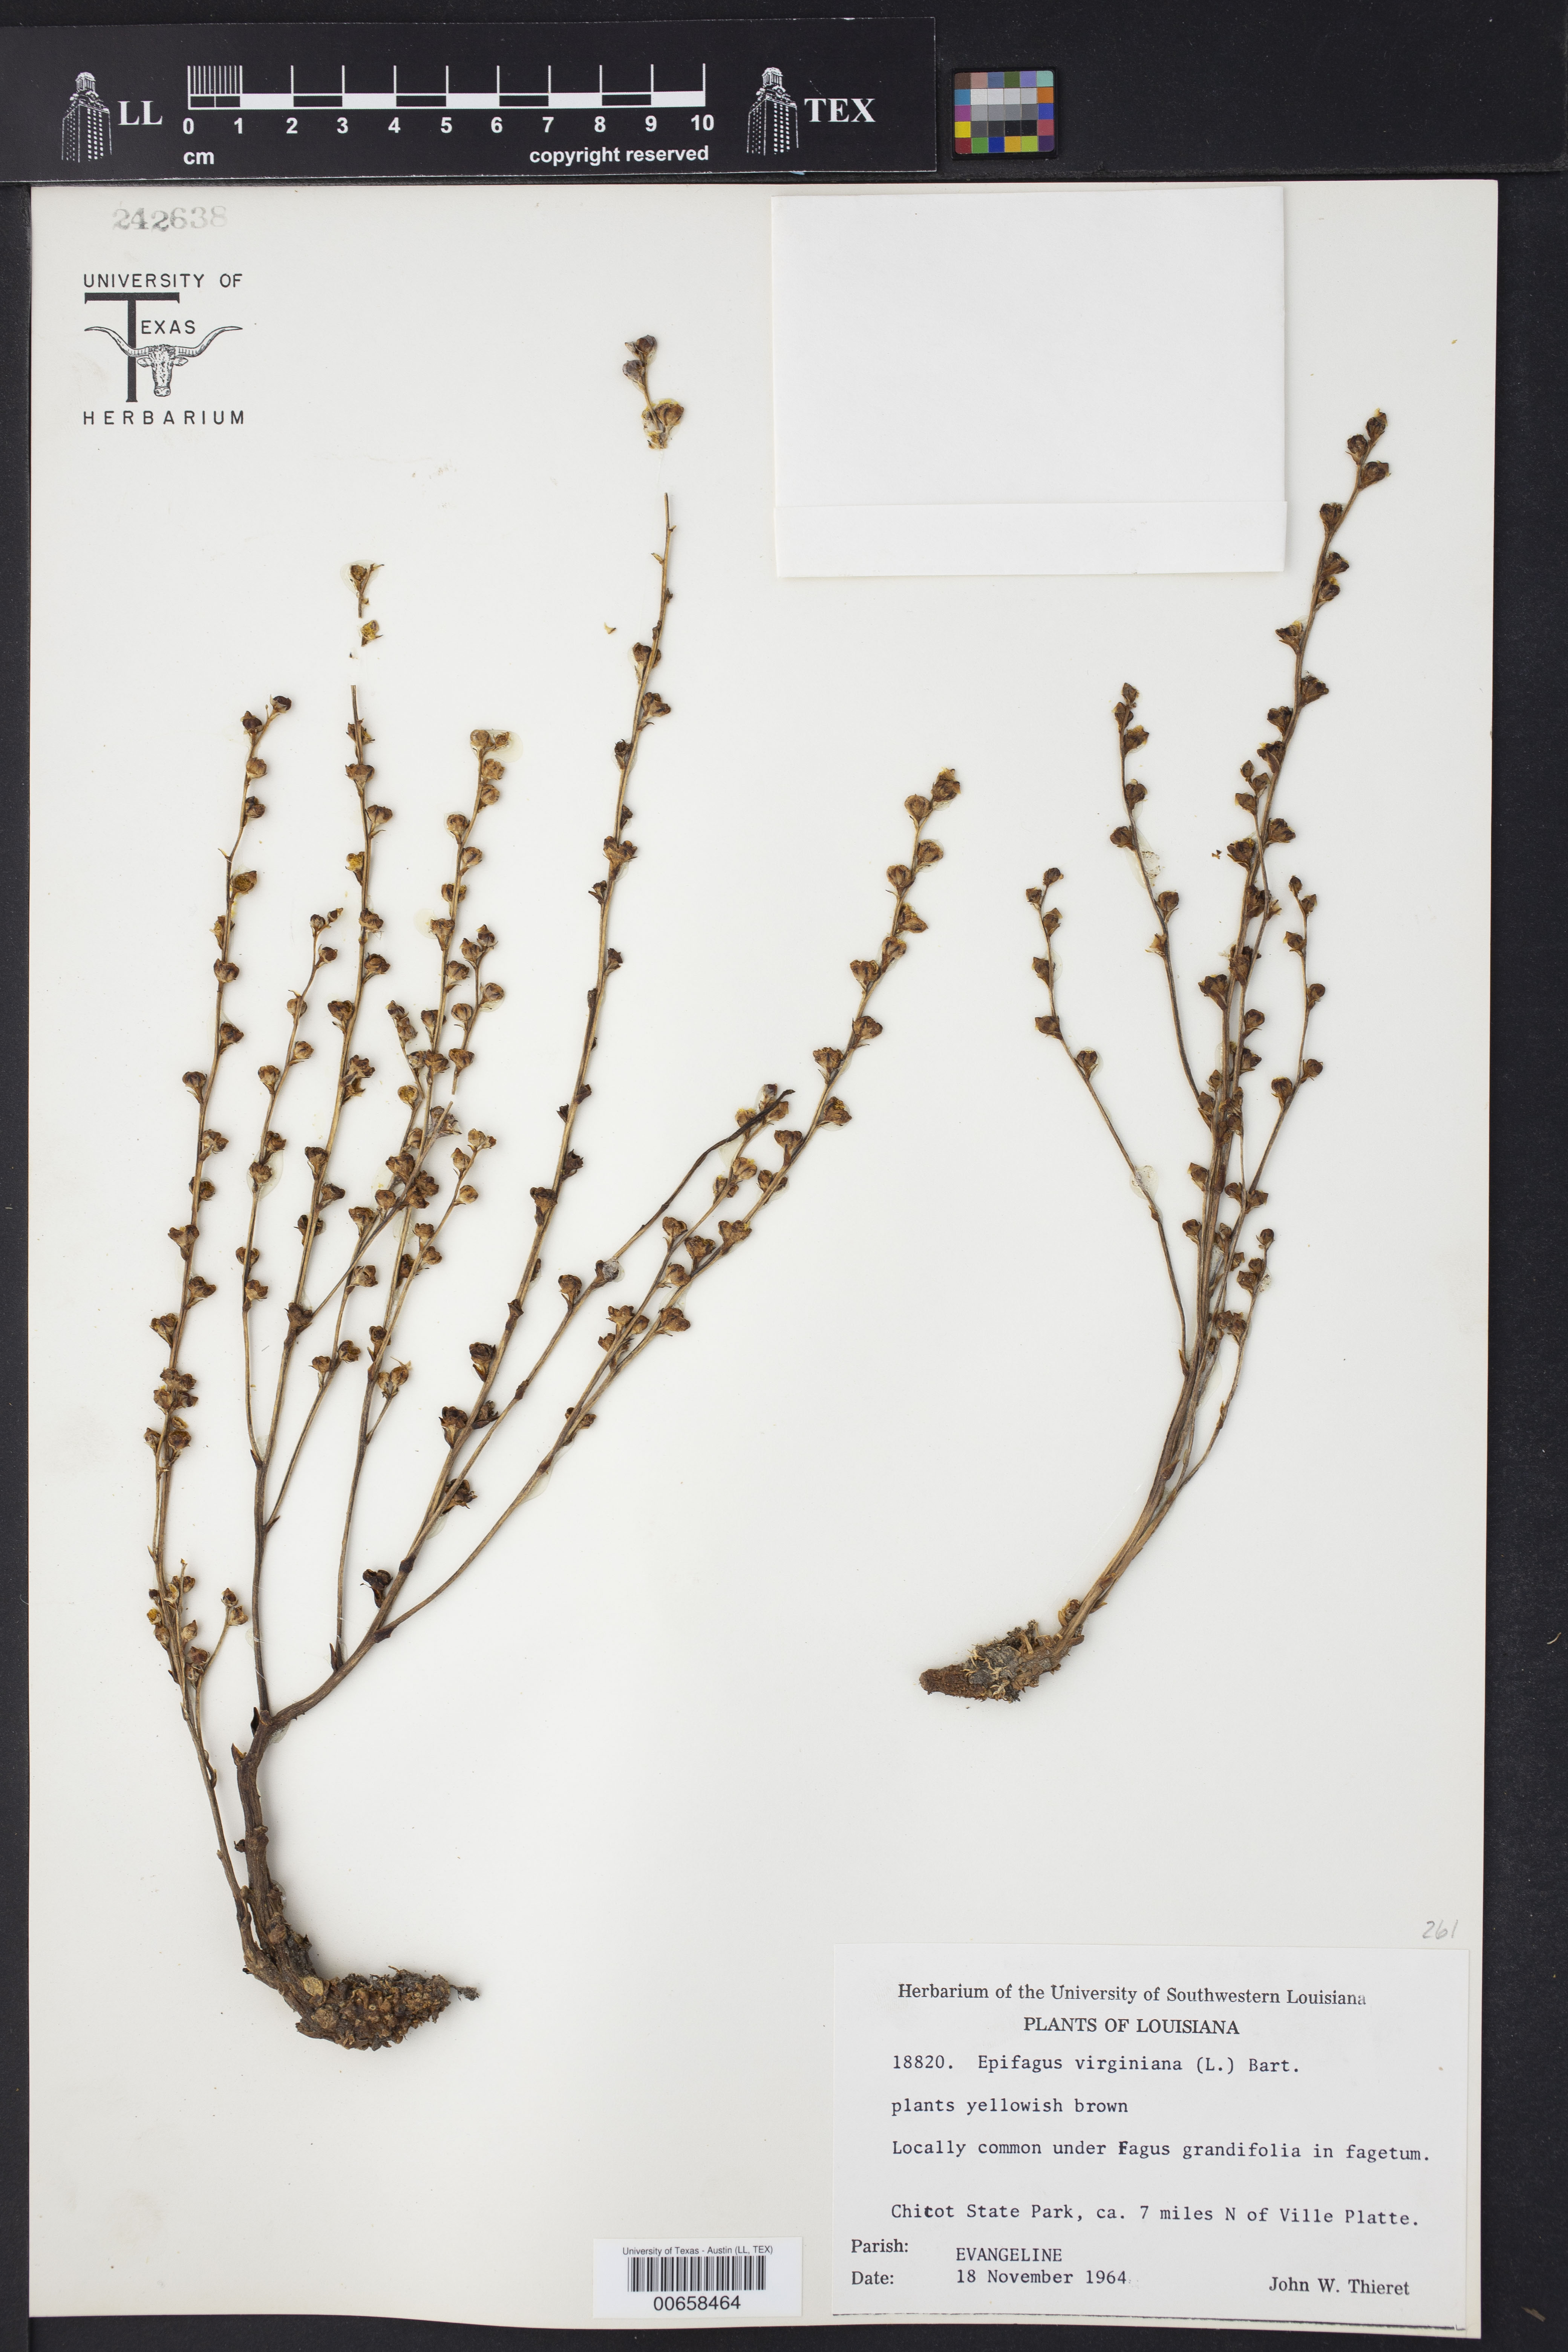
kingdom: Plantae
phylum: Tracheophyta
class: Magnoliopsida
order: Lamiales
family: Orobanchaceae
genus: Epifagus
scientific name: Epifagus virginiana
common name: Beechdrops
